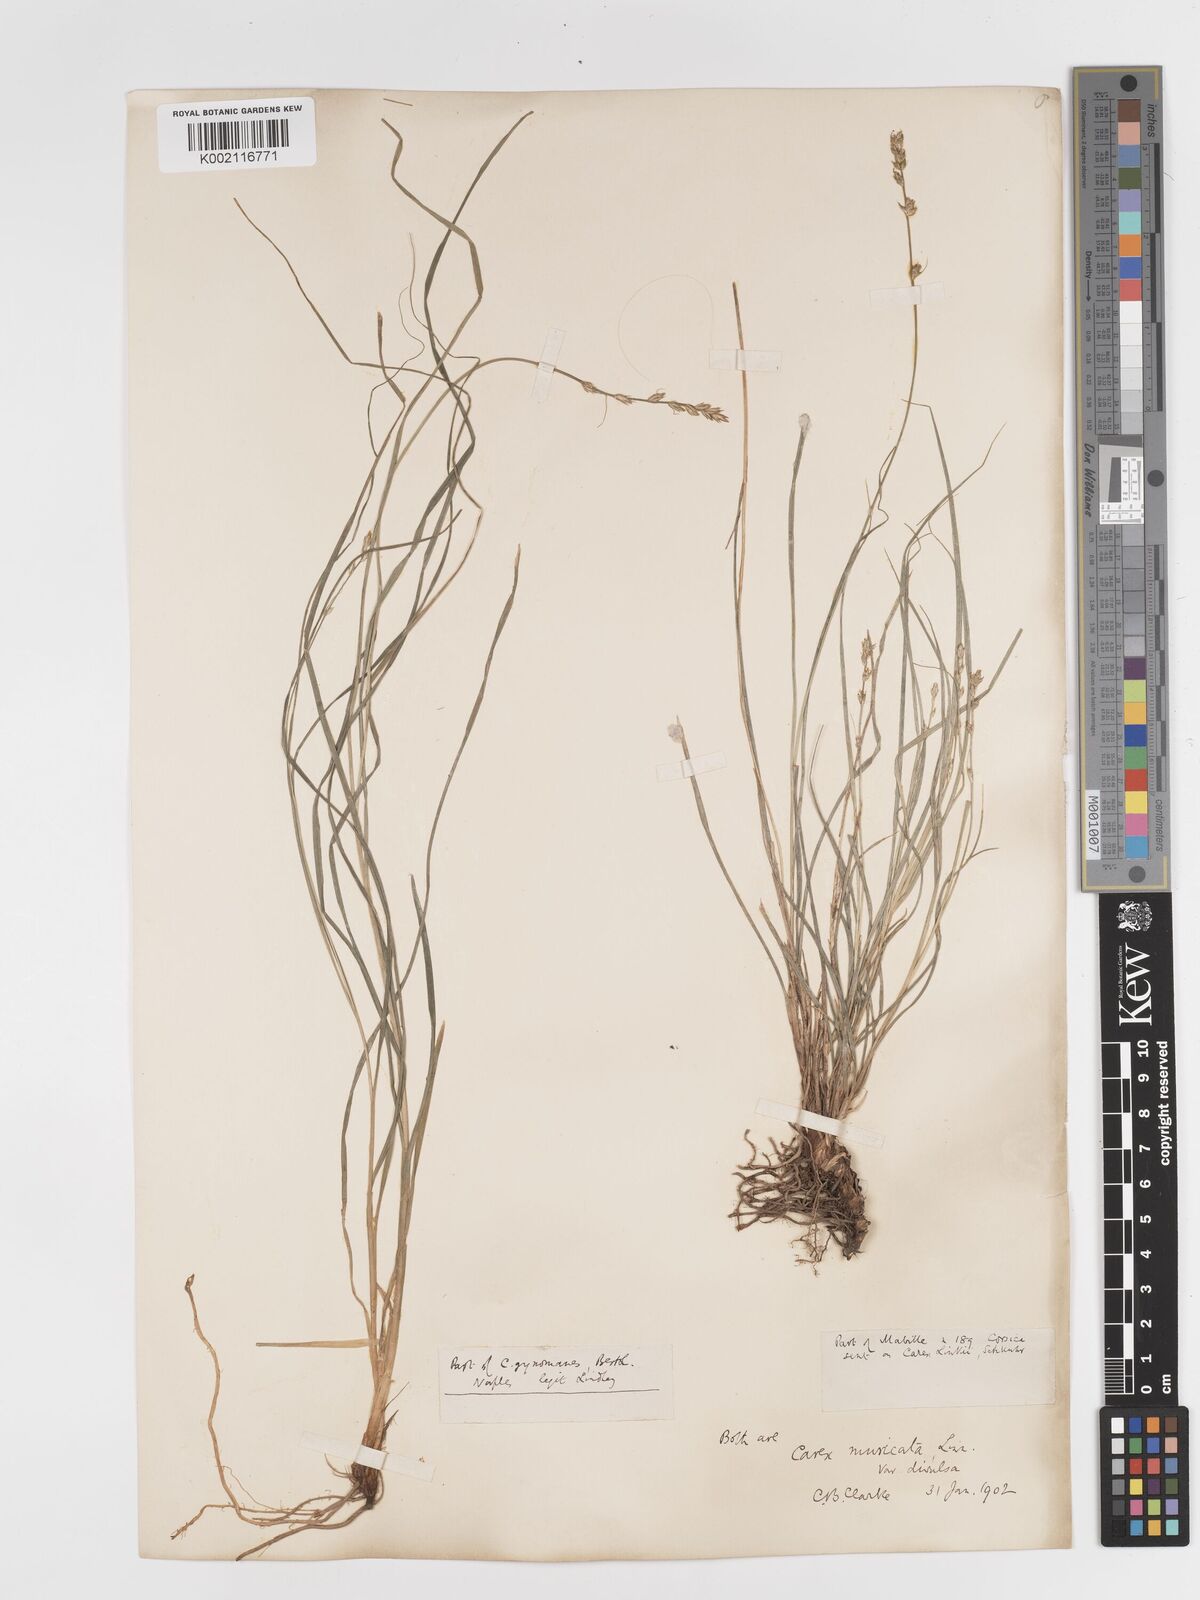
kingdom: Plantae
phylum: Tracheophyta
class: Liliopsida
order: Poales
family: Cyperaceae
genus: Carex
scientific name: Carex divulsa
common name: Grassland sedge
